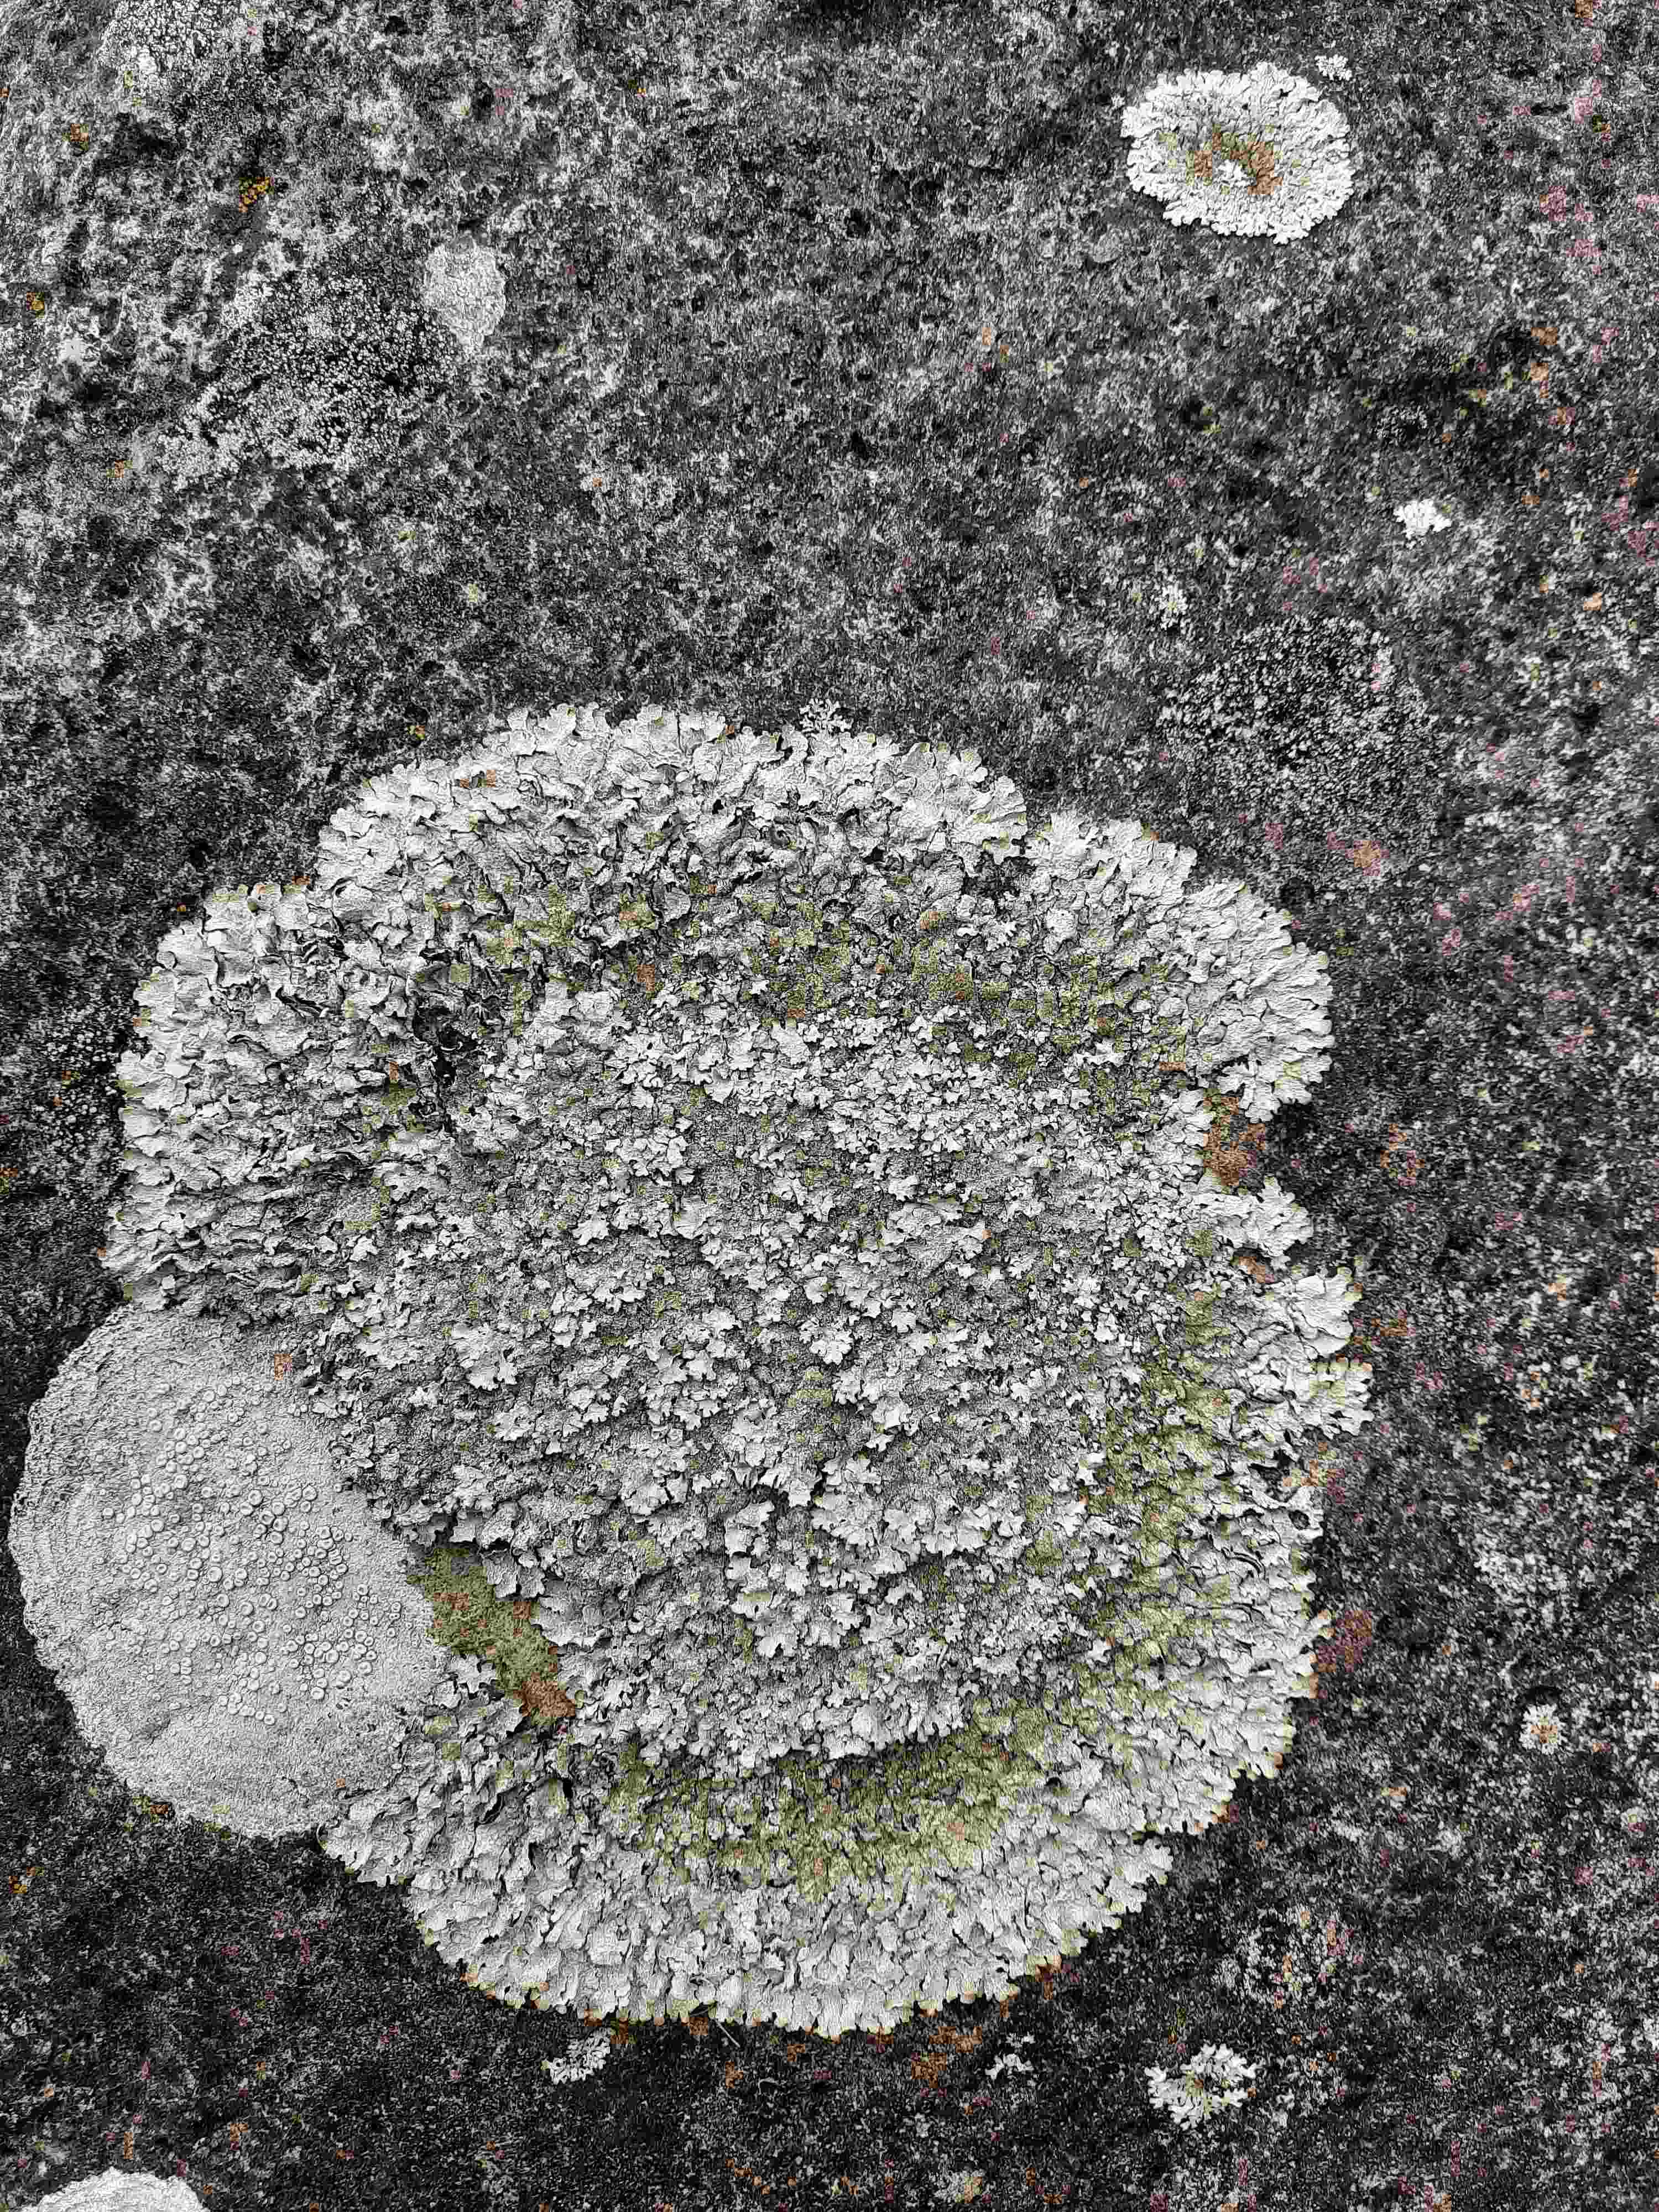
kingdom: Fungi
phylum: Ascomycota
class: Lecanoromycetes
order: Lecanorales
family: Parmeliaceae
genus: Parmelia
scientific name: Parmelia saxatilis
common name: farve-skållav
